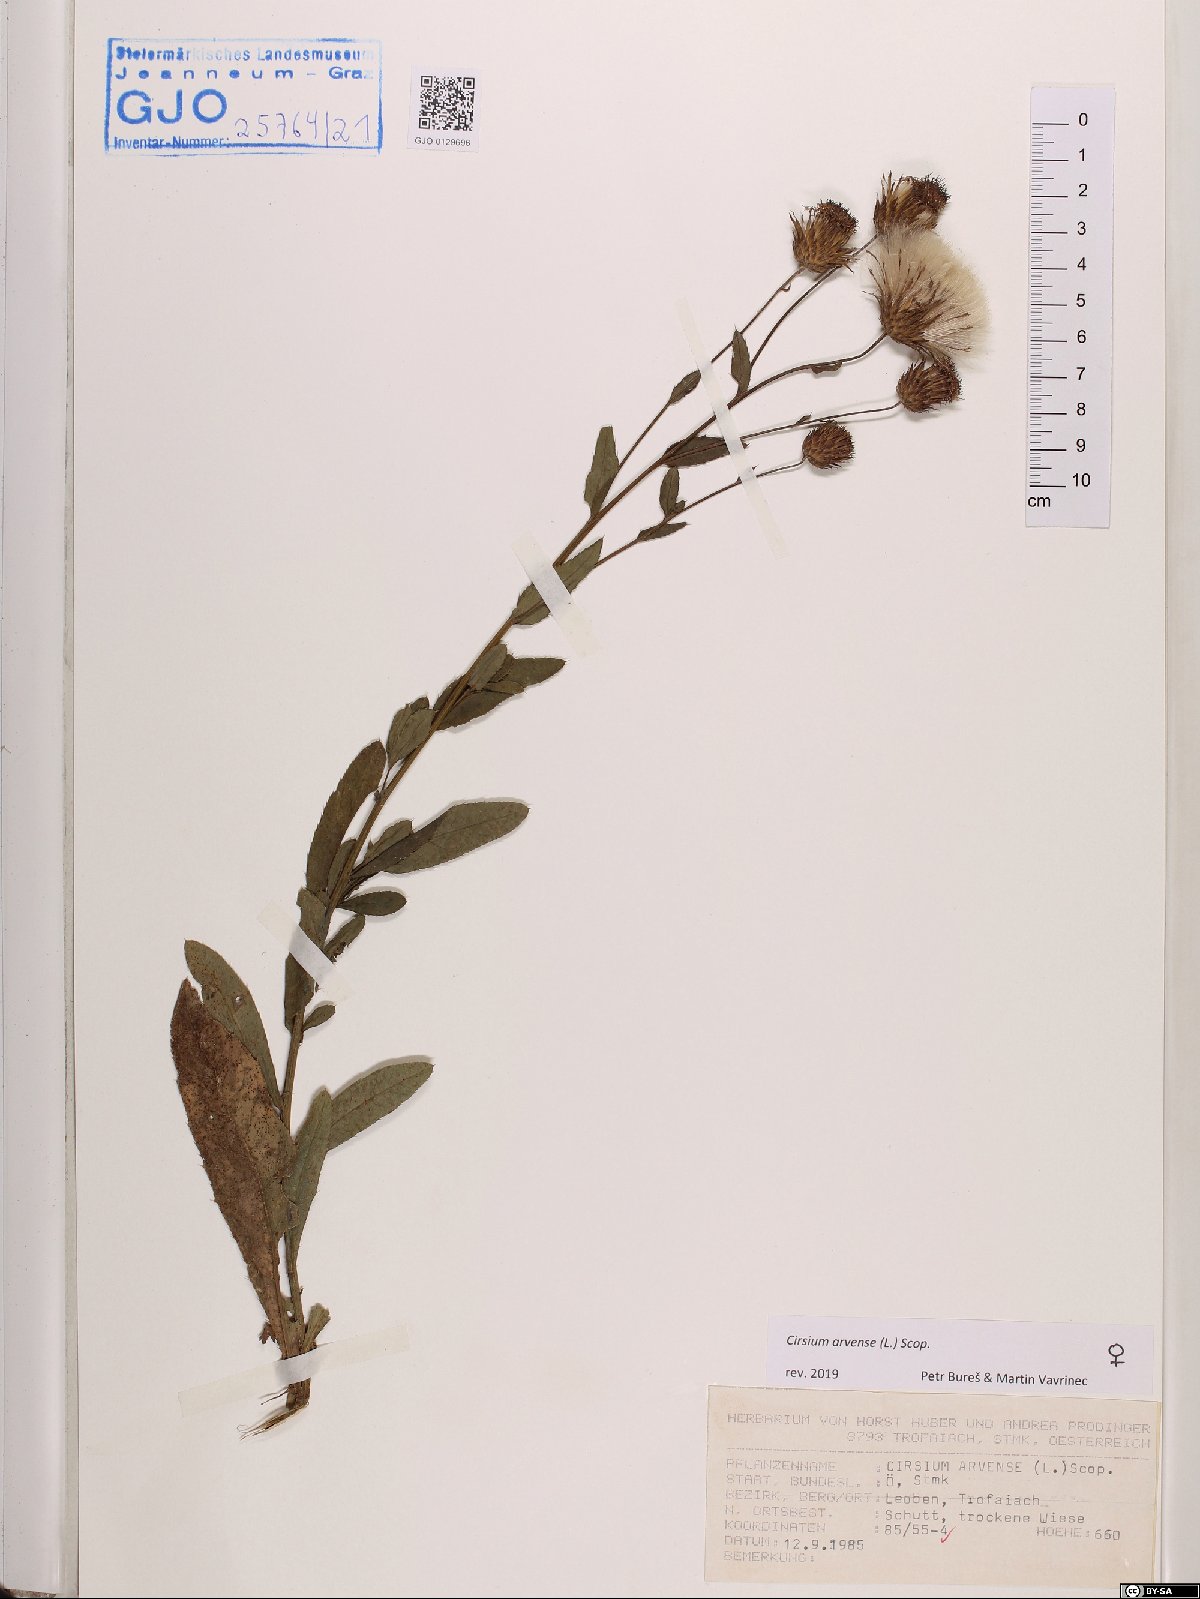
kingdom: Plantae
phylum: Tracheophyta
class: Magnoliopsida
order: Asterales
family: Asteraceae
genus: Cirsium
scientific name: Cirsium arvense
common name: Creeping thistle
